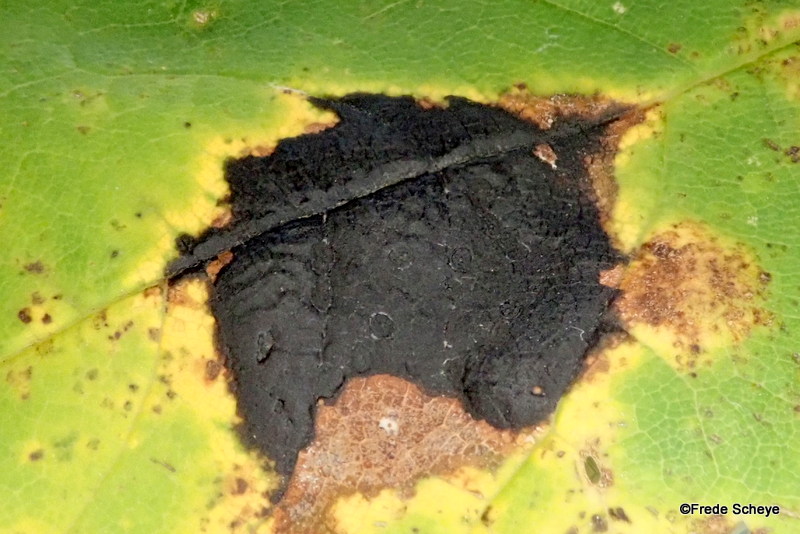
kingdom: Fungi
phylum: Ascomycota
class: Leotiomycetes
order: Rhytismatales
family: Rhytismataceae
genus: Rhytisma
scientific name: Rhytisma acerinum
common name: ahorn-rynkeplet
